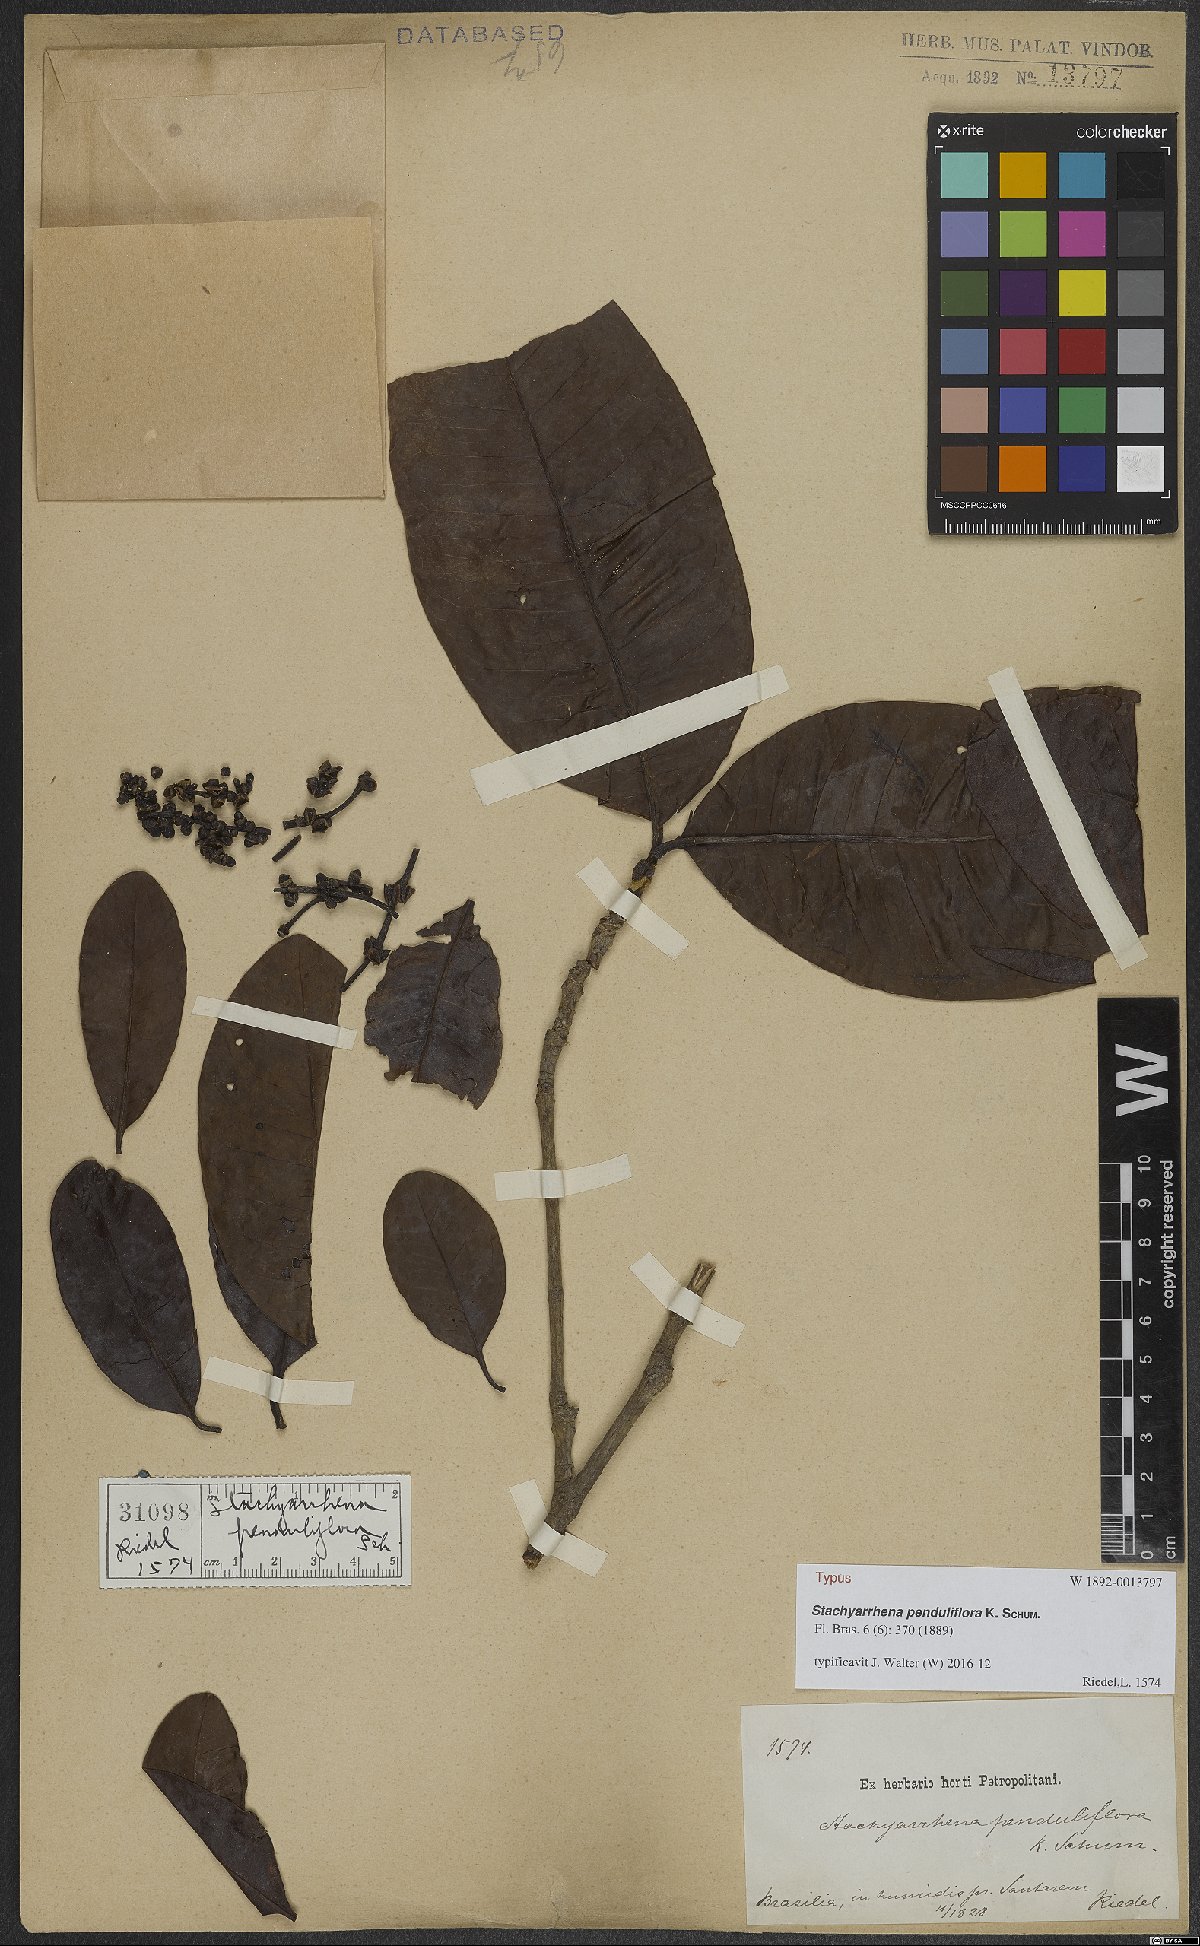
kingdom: Plantae
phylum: Tracheophyta
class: Magnoliopsida
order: Gentianales
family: Rubiaceae
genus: Stachyarrhena
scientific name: Stachyarrhena penduliflora
